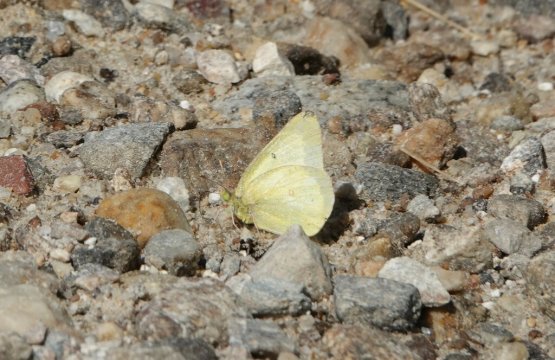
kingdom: Animalia
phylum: Arthropoda
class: Insecta
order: Lepidoptera
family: Pieridae
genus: Colias
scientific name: Colias
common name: Clouded Yellows
